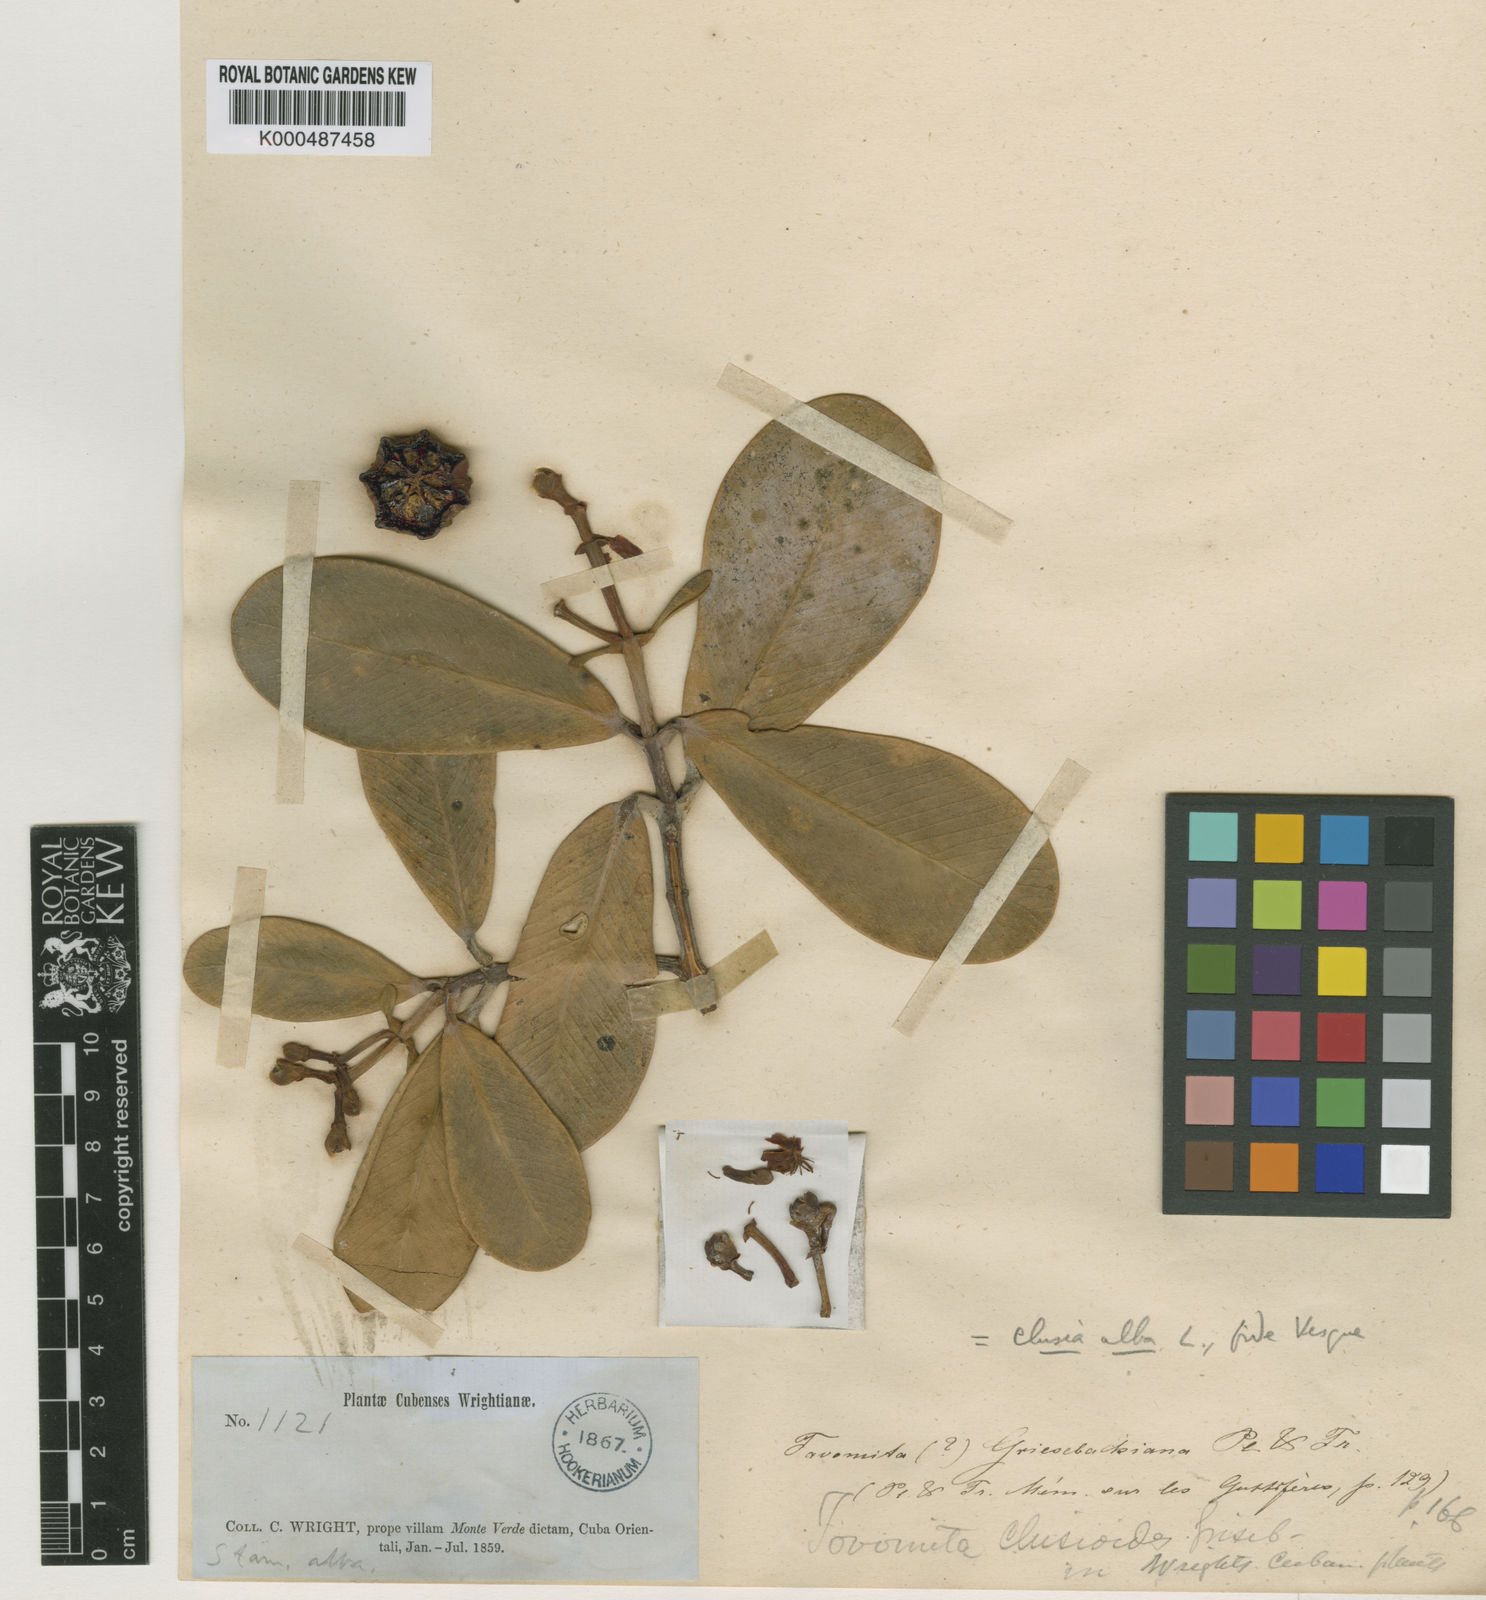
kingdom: Plantae
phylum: Tracheophyta
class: Magnoliopsida
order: Malpighiales
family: Clusiaceae
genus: Clusia
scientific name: Clusia
